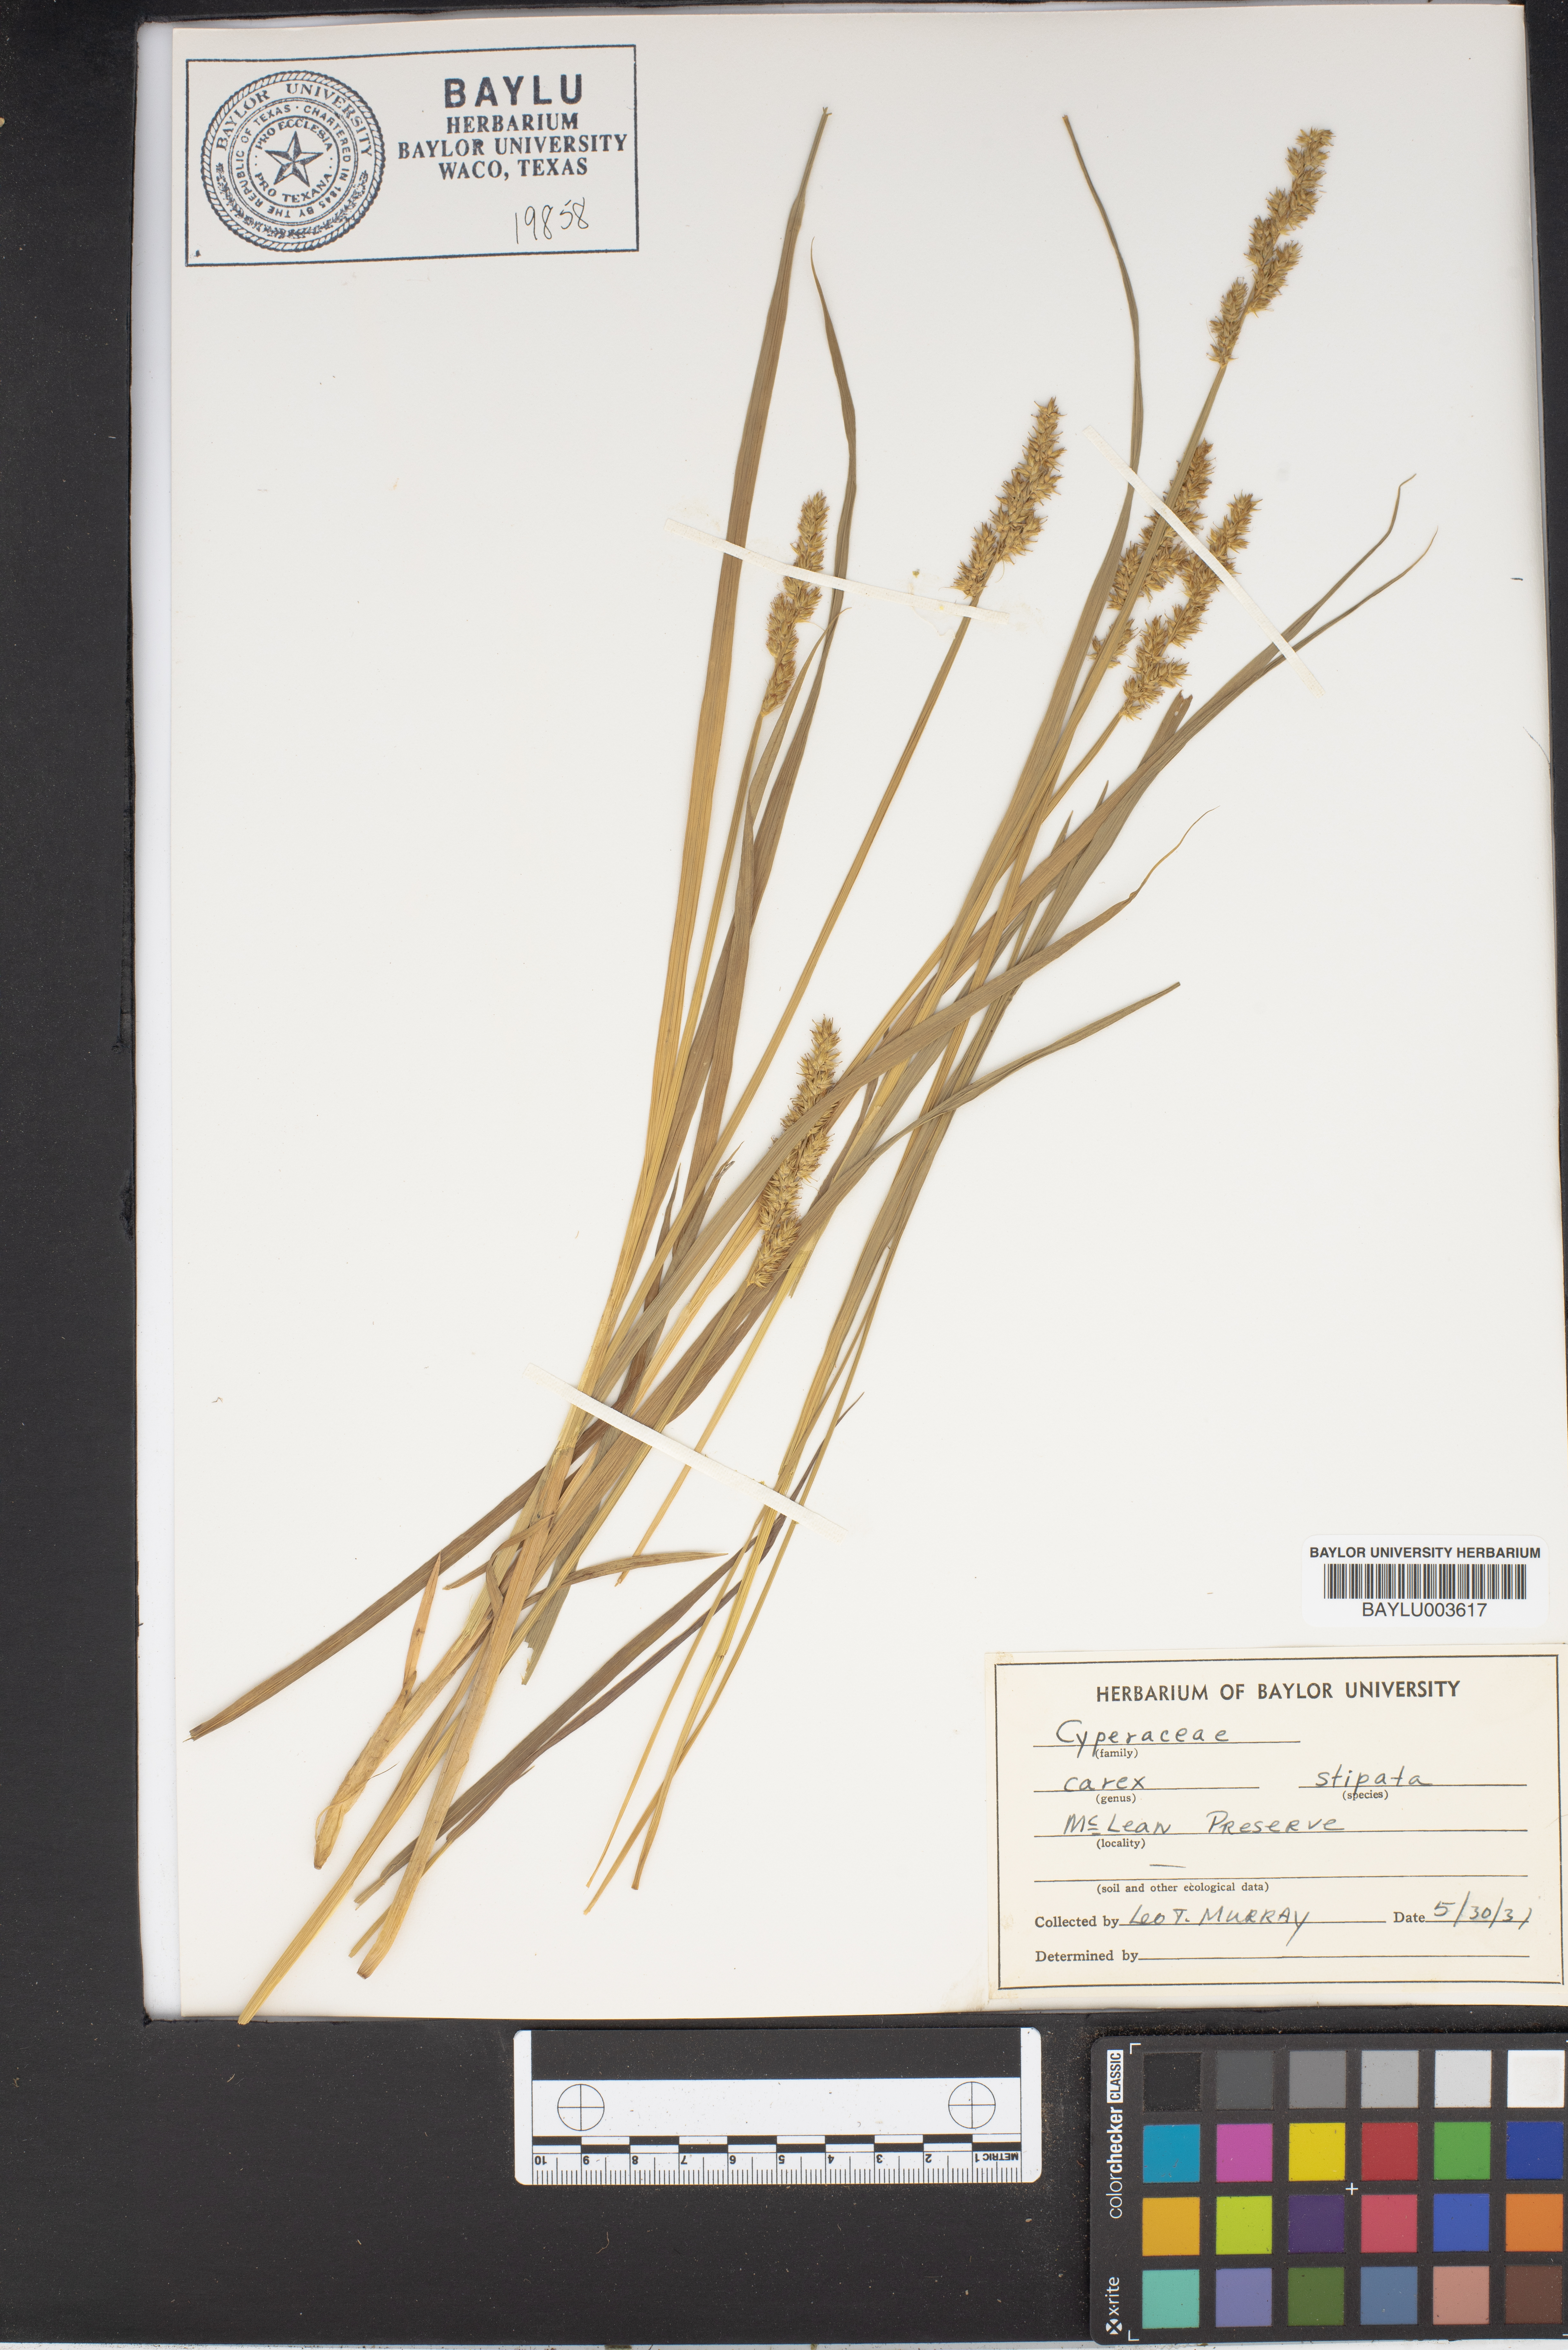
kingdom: Plantae
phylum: Tracheophyta
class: Liliopsida
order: Poales
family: Cyperaceae
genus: Carex
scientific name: Carex stipata
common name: Awl-fruited sedge
